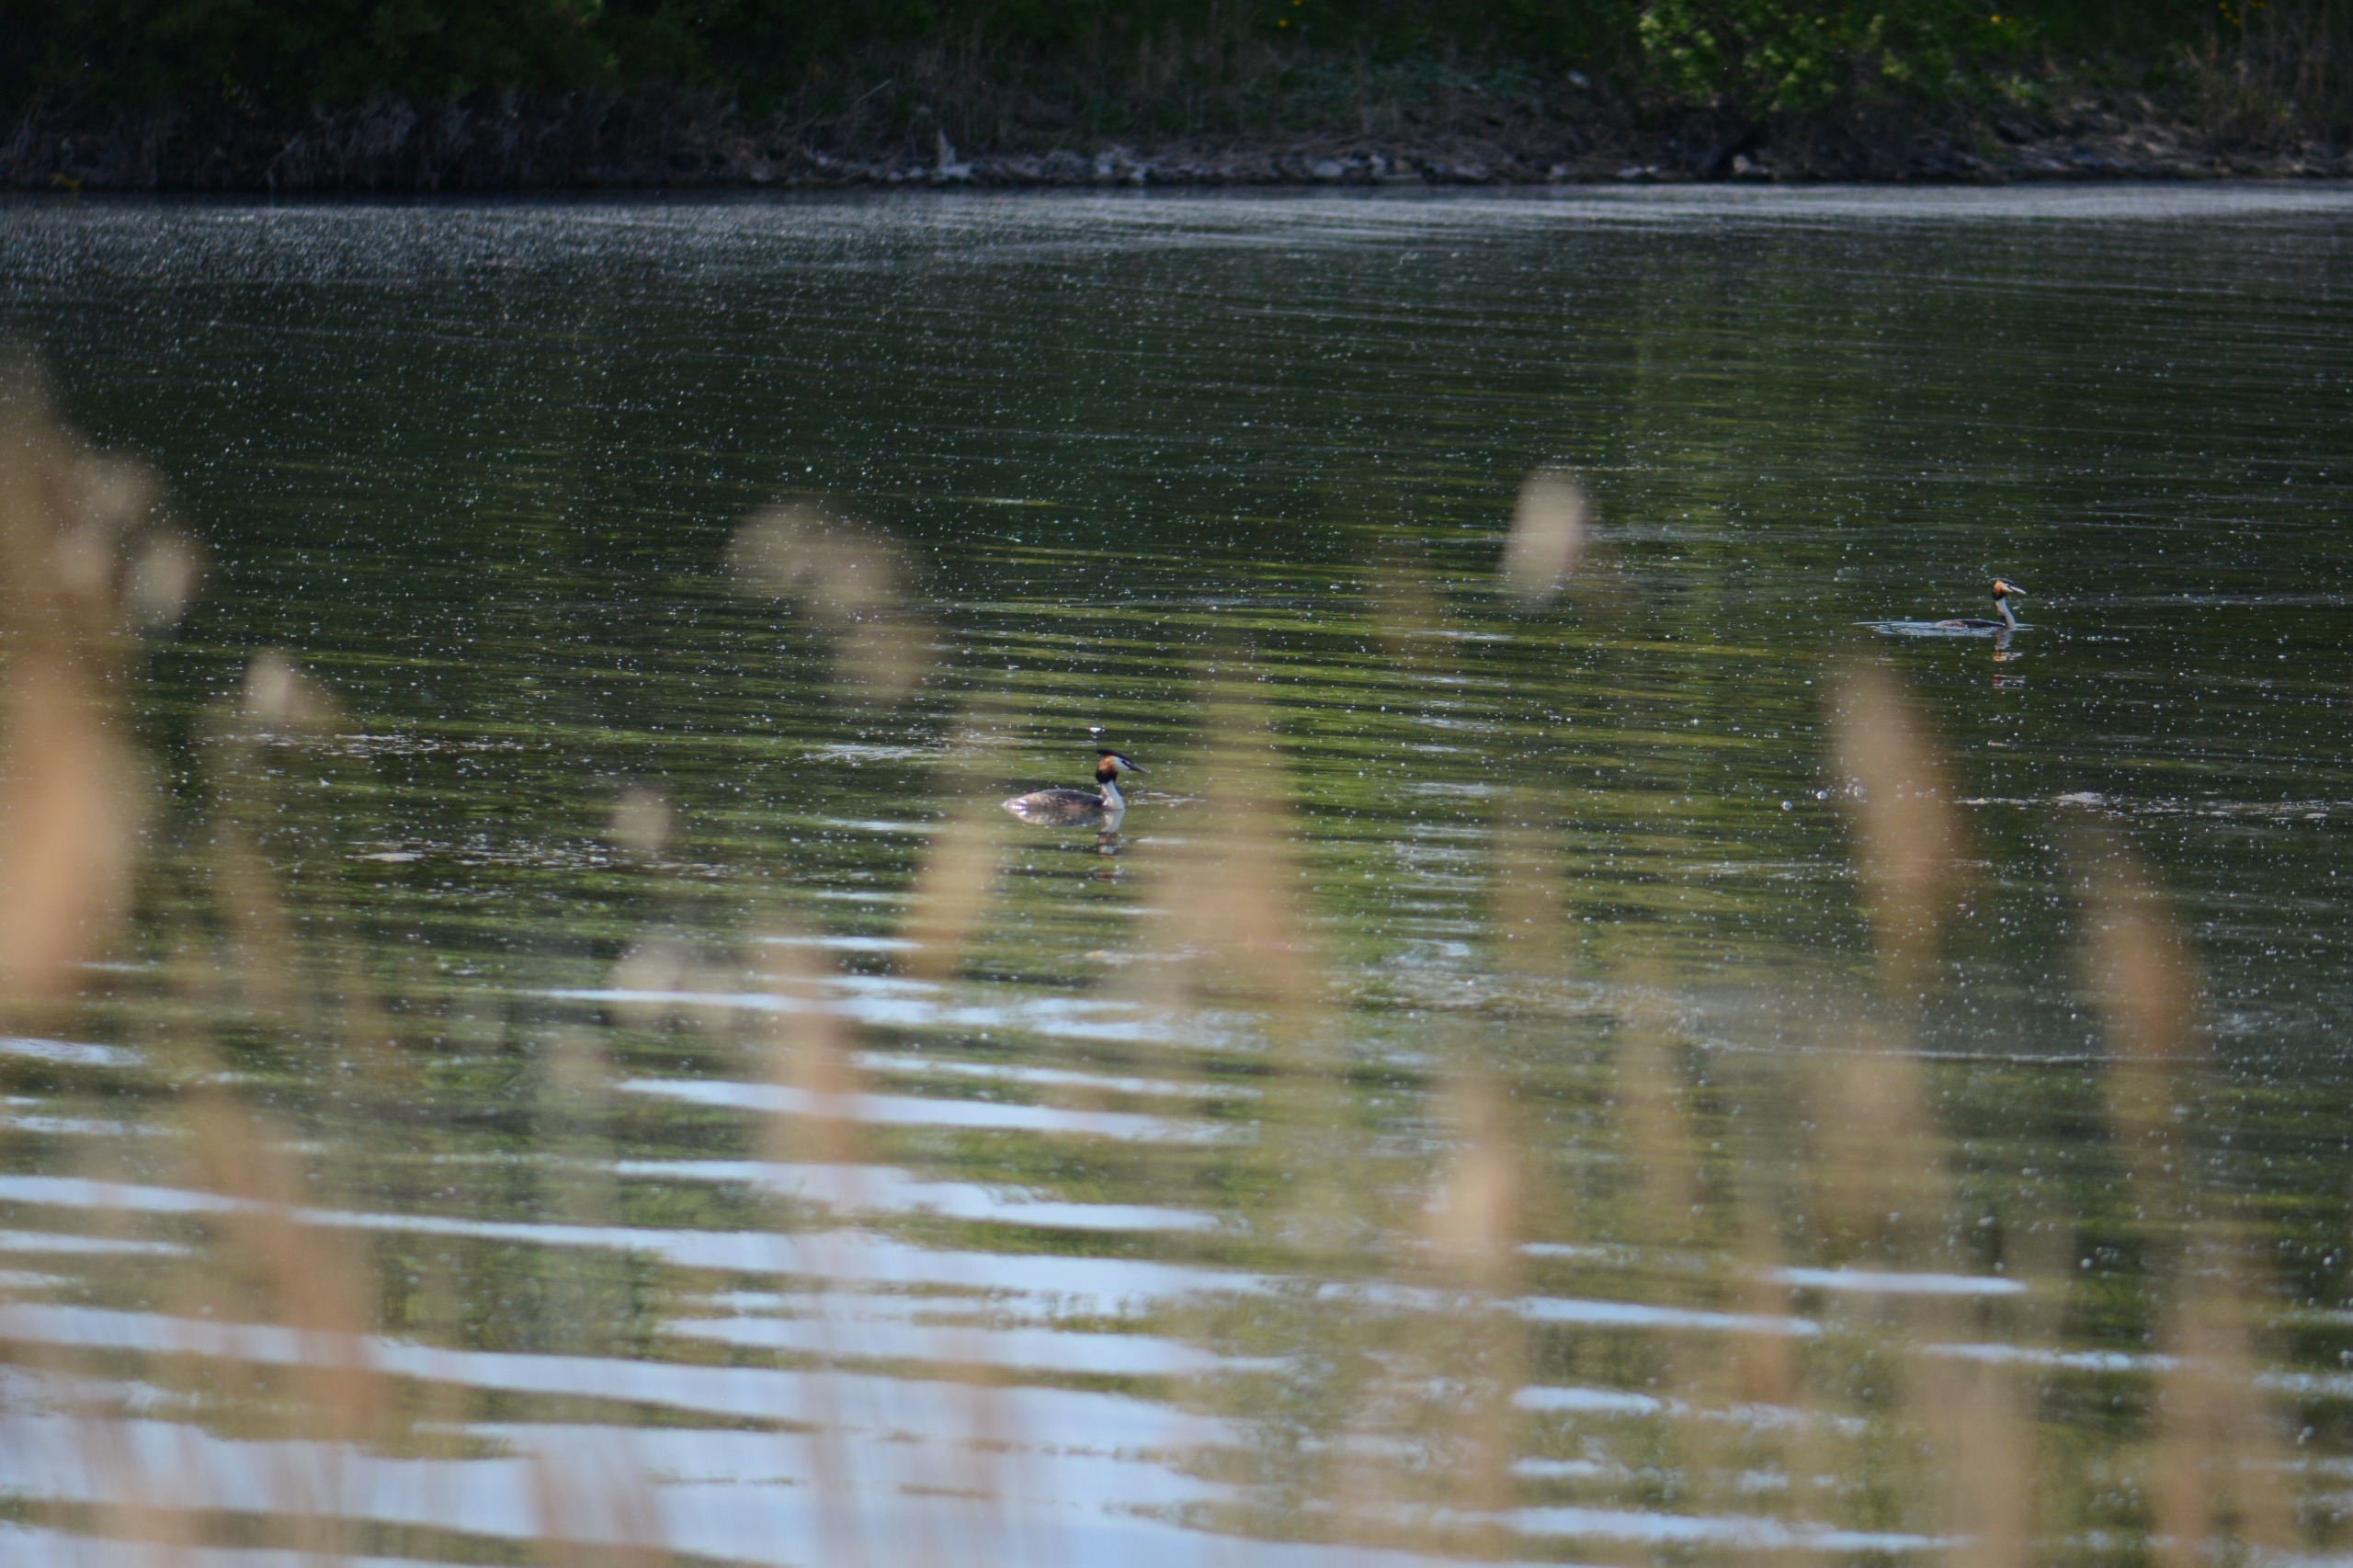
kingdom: Animalia
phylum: Chordata
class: Aves
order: Podicipediformes
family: Podicipedidae
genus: Podiceps
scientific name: Podiceps cristatus
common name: Toppet lappedykker
